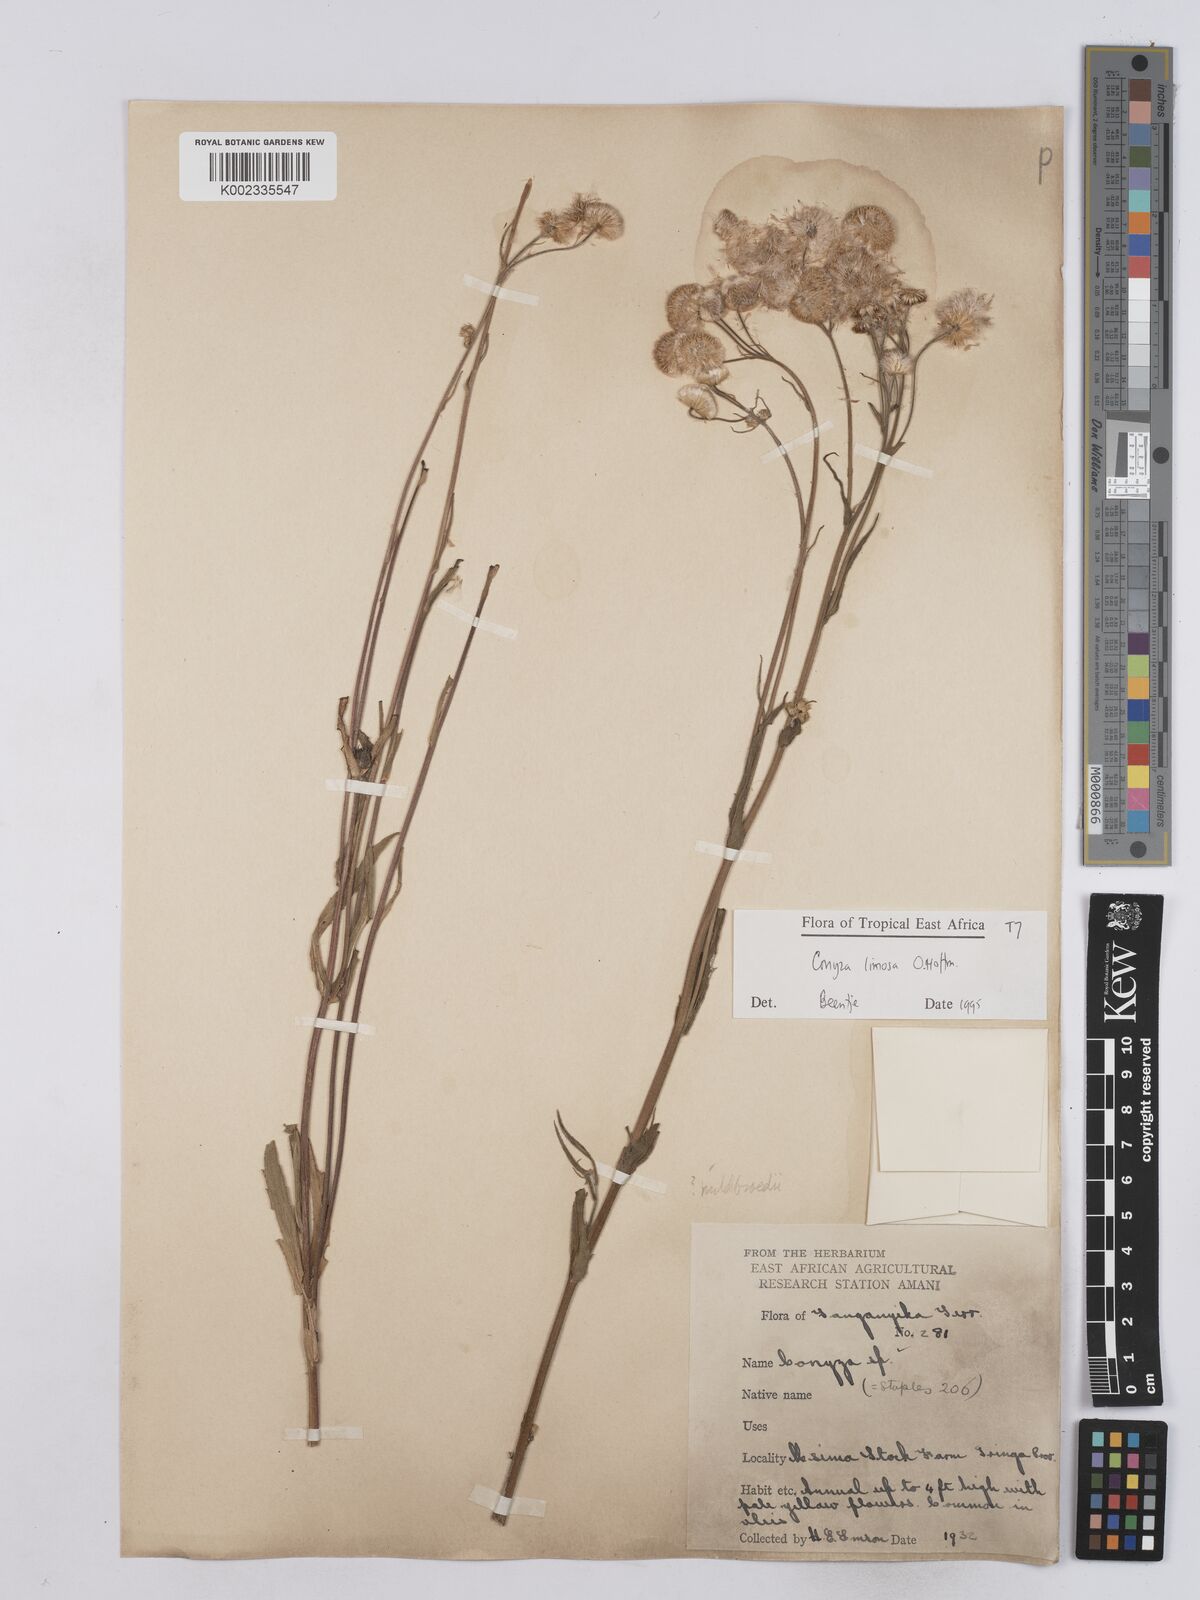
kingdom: Plantae
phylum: Tracheophyta
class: Magnoliopsida
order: Asterales
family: Asteraceae
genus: Conyza
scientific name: Conyza limosa
